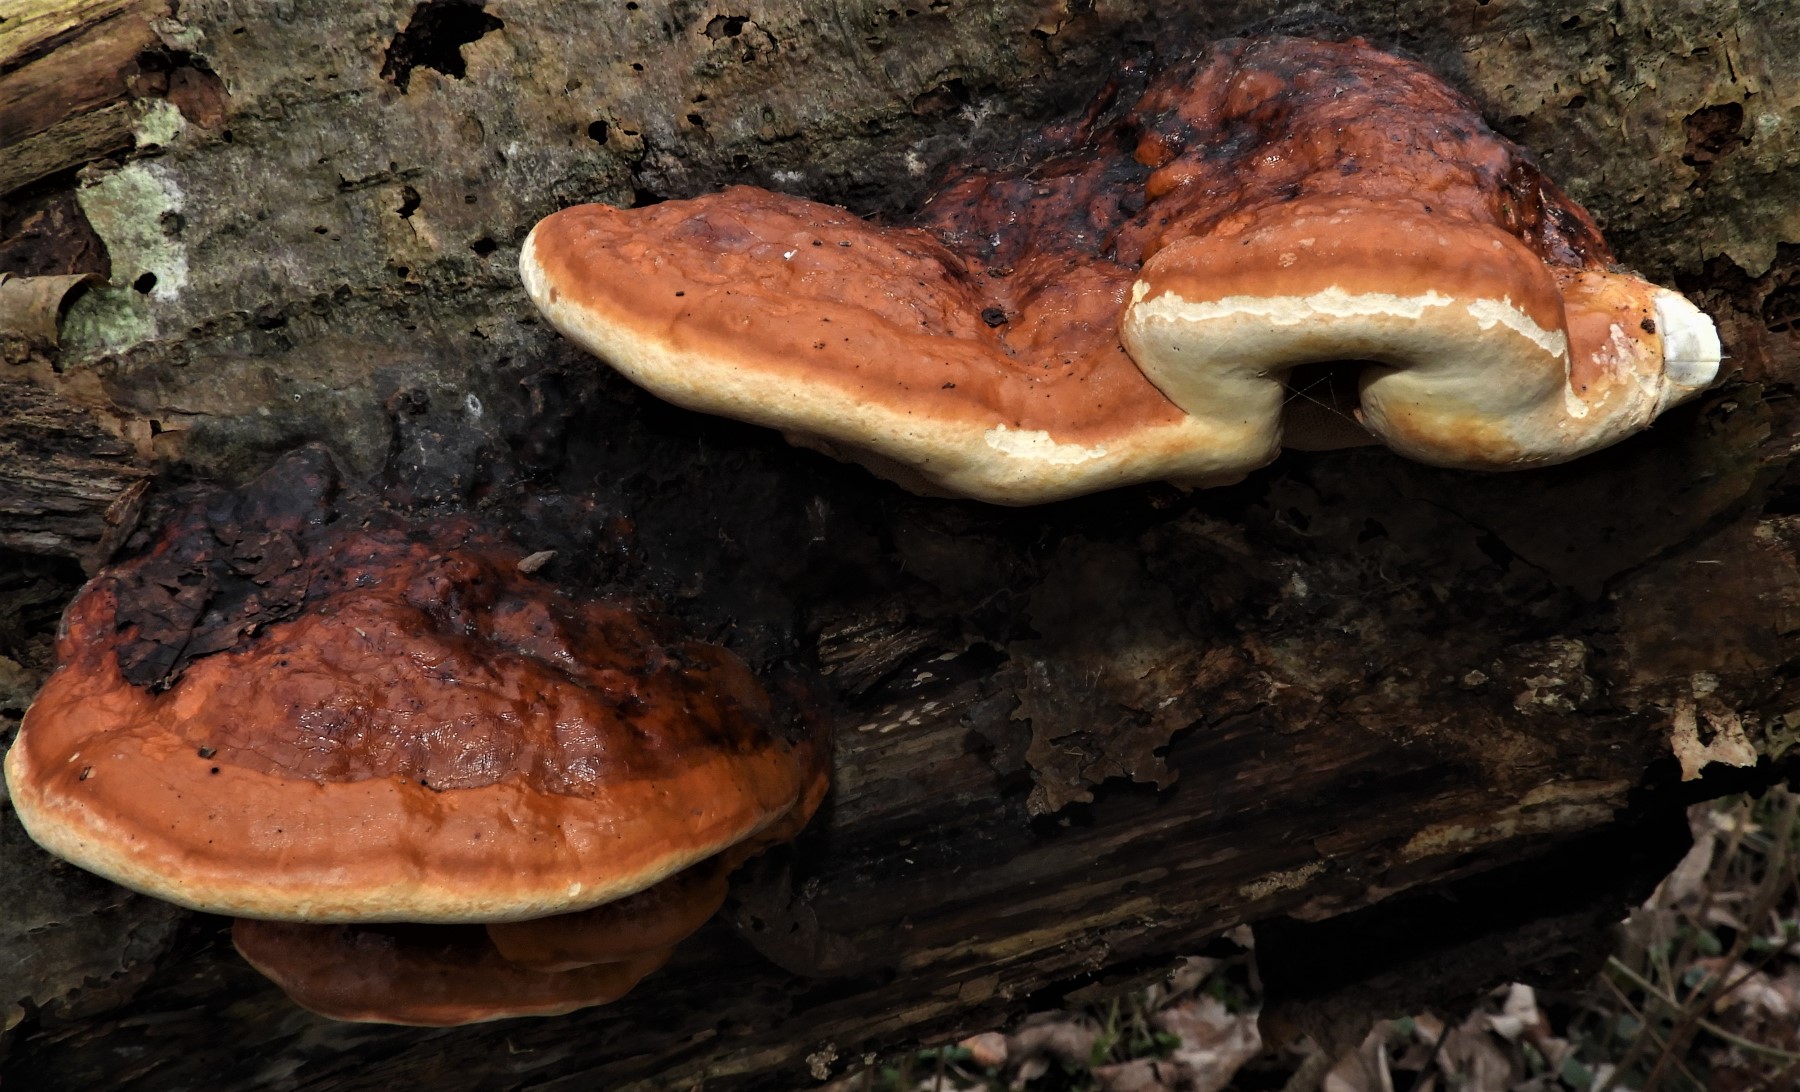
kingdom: Fungi
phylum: Basidiomycota
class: Agaricomycetes
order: Polyporales
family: Fomitopsidaceae
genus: Fomitopsis
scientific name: Fomitopsis pinicola
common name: randbæltet hovporesvamp
